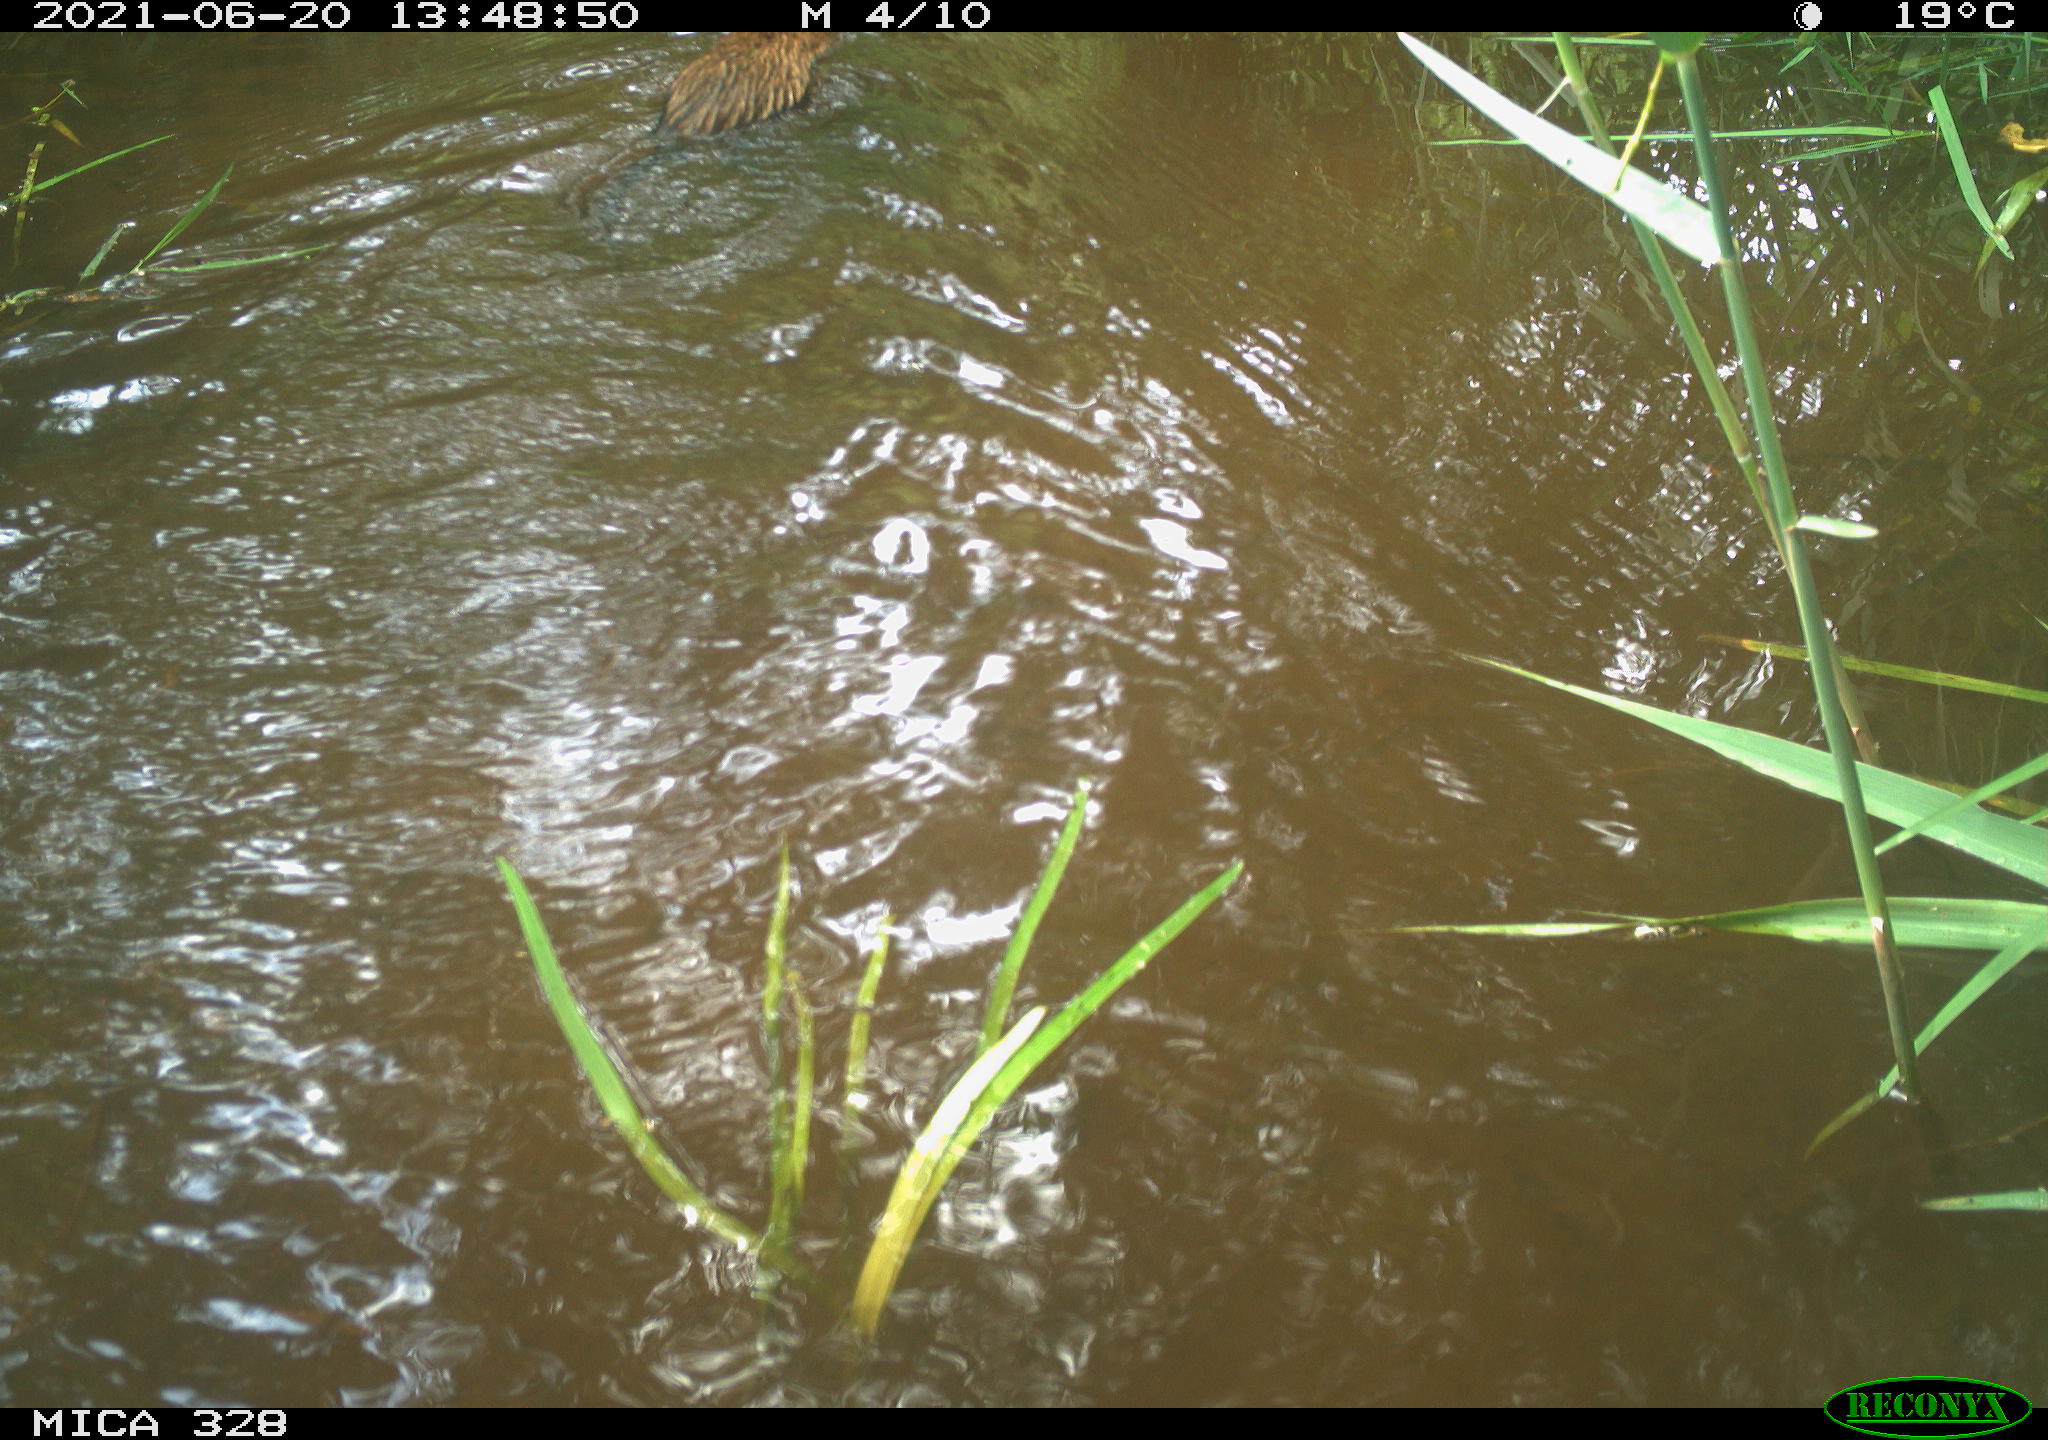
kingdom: Animalia
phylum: Chordata
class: Mammalia
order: Rodentia
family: Cricetidae
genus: Ondatra
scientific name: Ondatra zibethicus
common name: Muskrat
